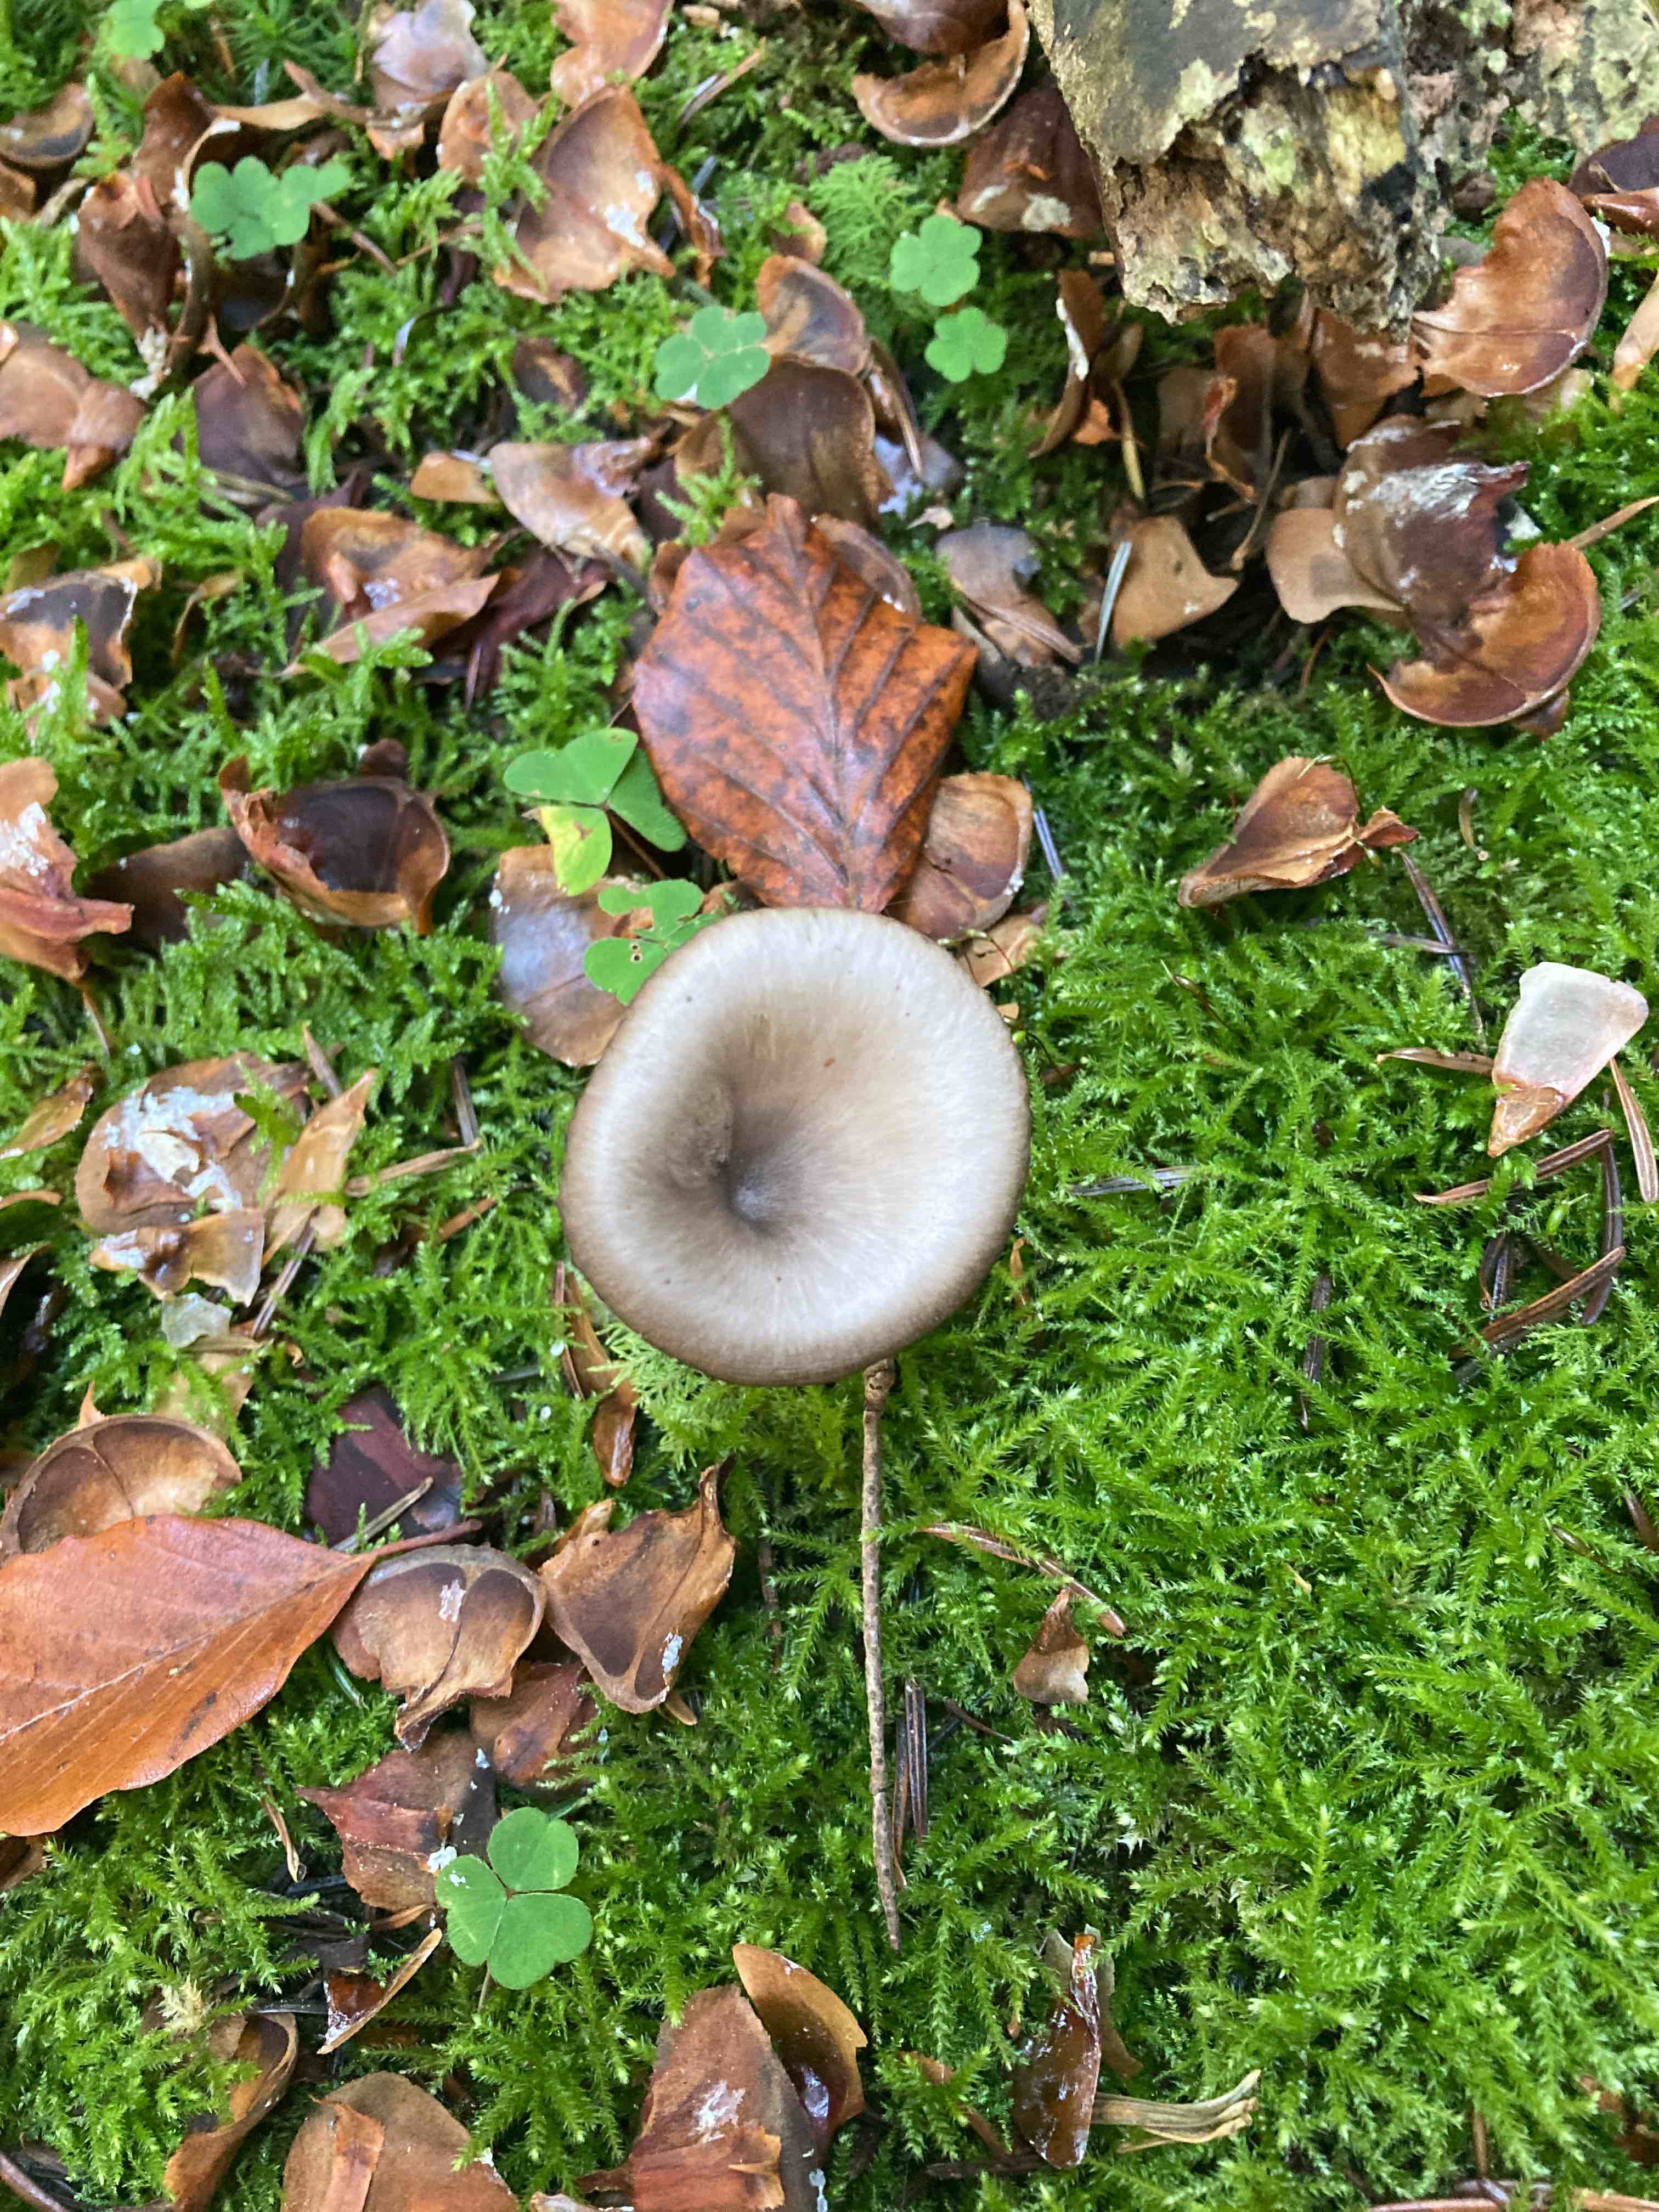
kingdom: Fungi
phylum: Basidiomycota
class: Agaricomycetes
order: Agaricales
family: Pseudoclitocybaceae
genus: Pseudoclitocybe
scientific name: Pseudoclitocybe cyathiformis
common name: almindelig bægertragthat
